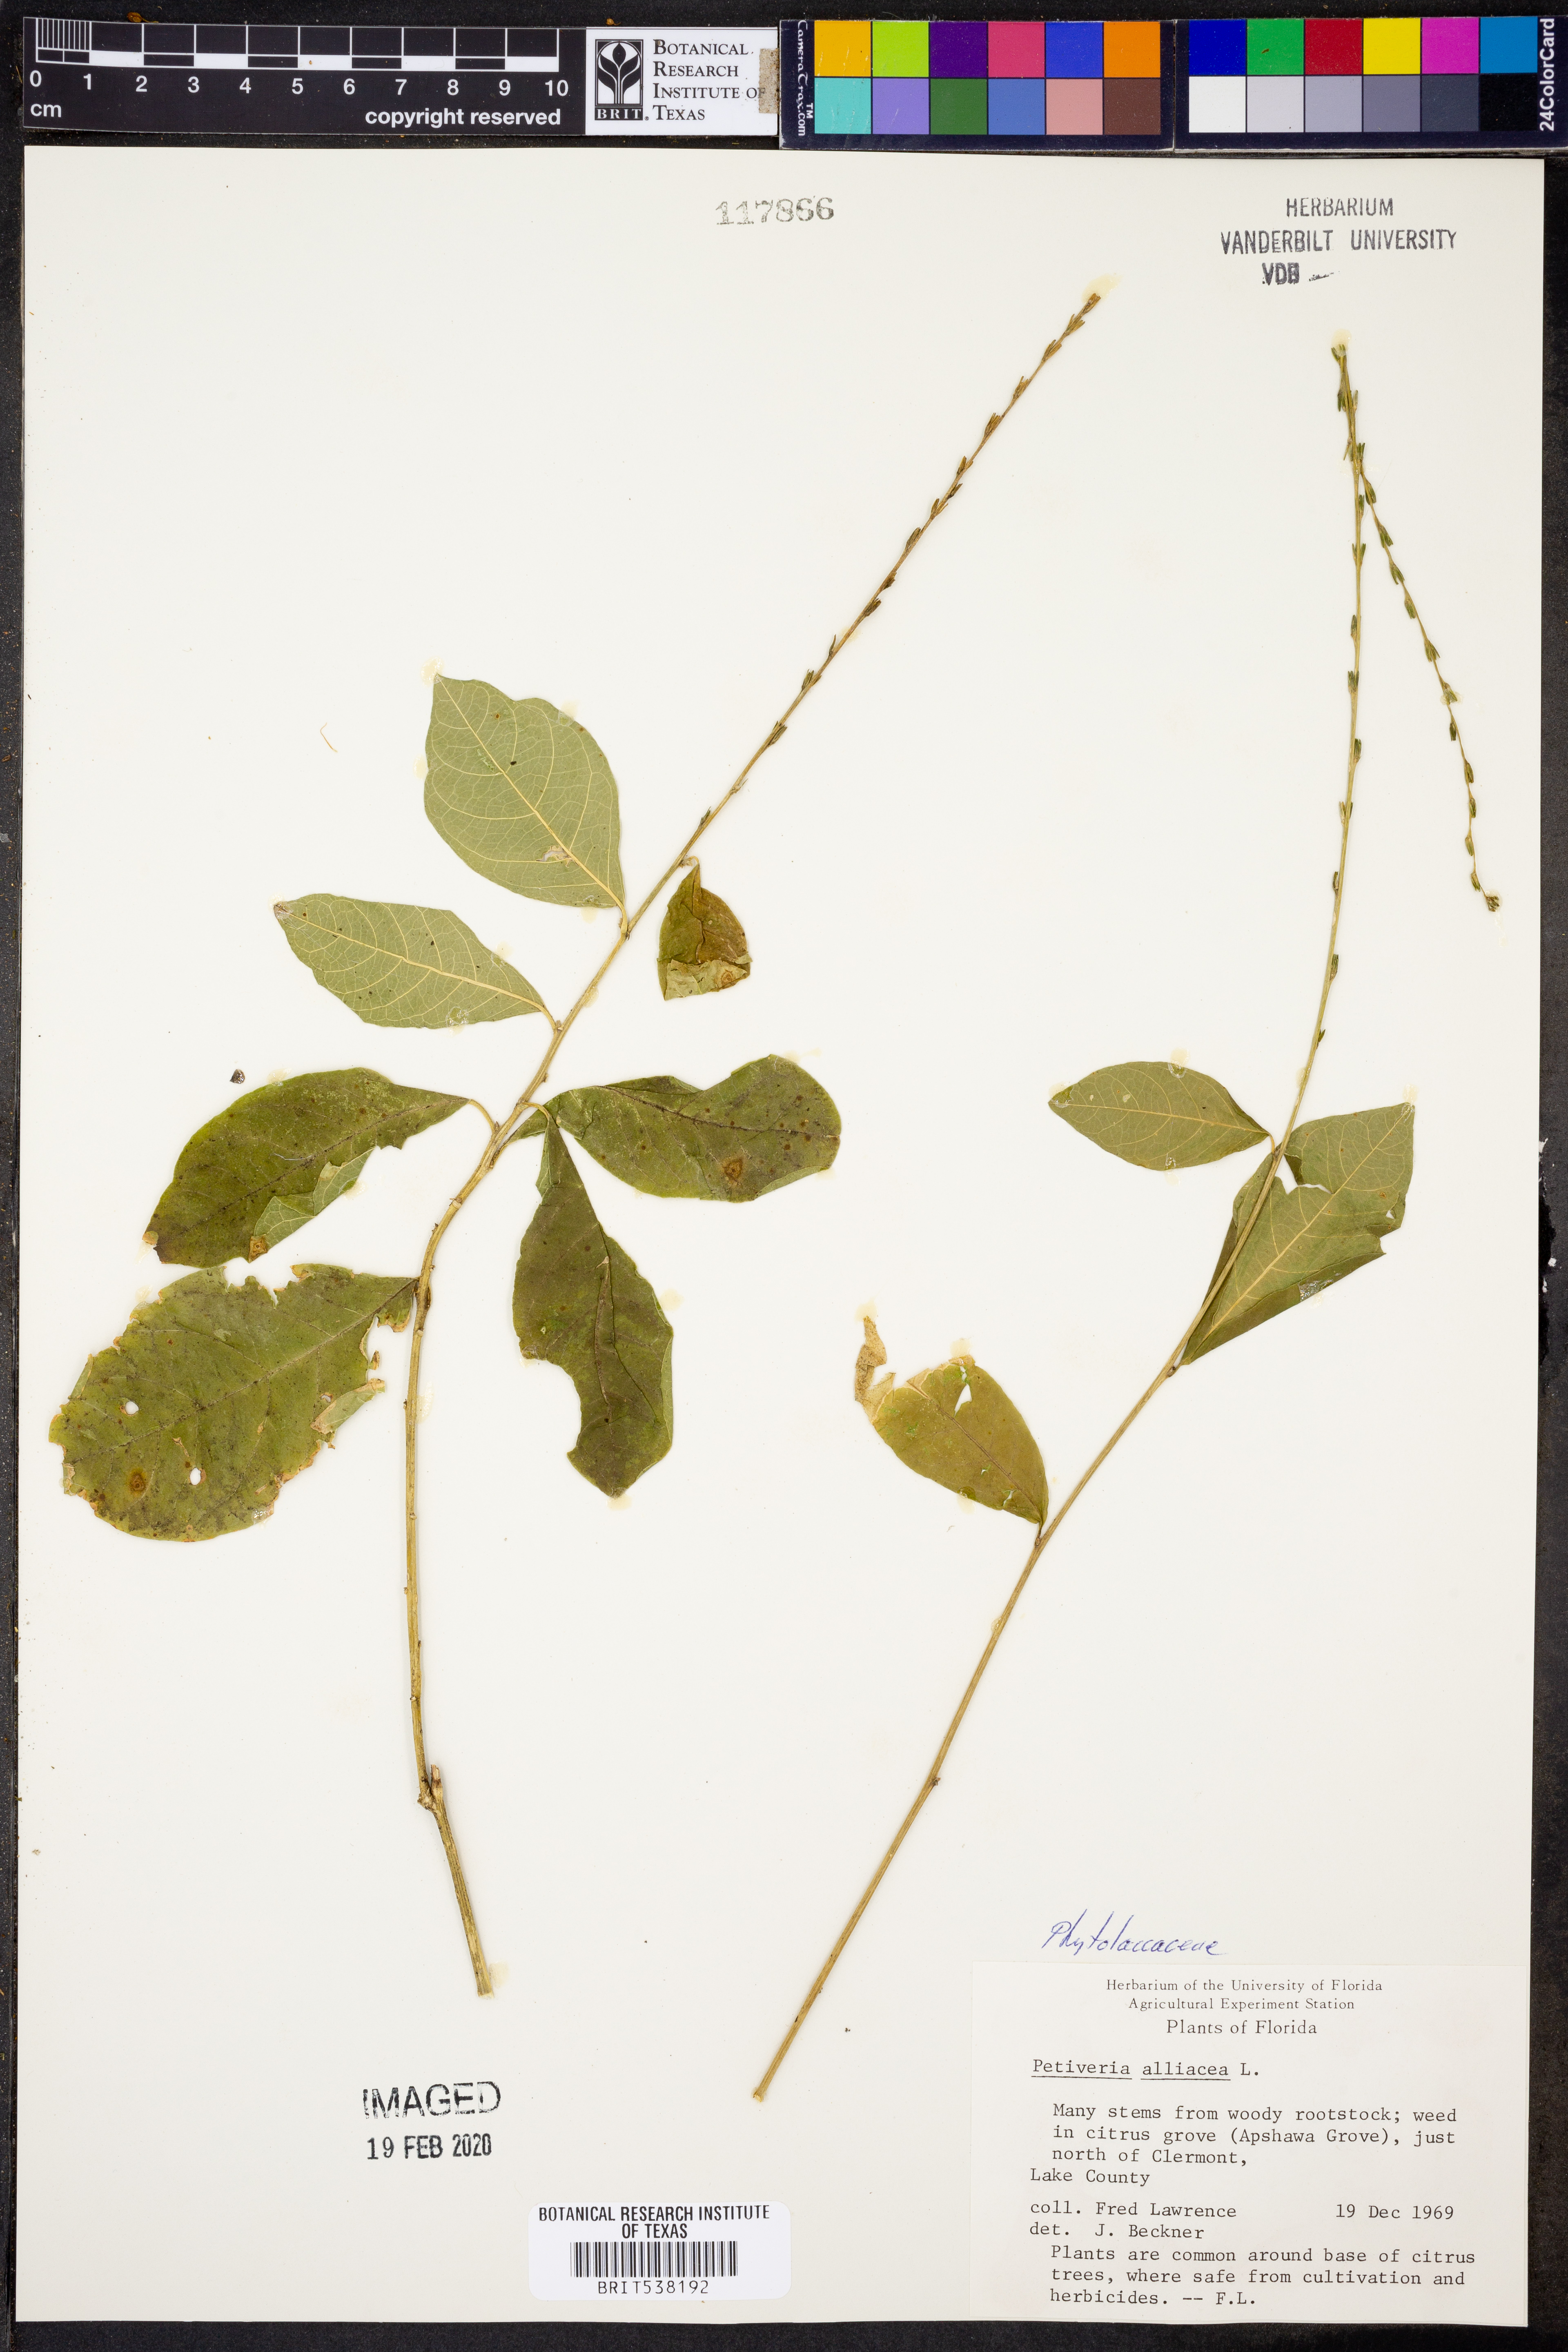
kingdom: Plantae
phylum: Tracheophyta
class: Magnoliopsida
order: Caryophyllales
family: Phytolaccaceae
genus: Petiveria
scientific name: Petiveria alliacea
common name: Garlicweed
